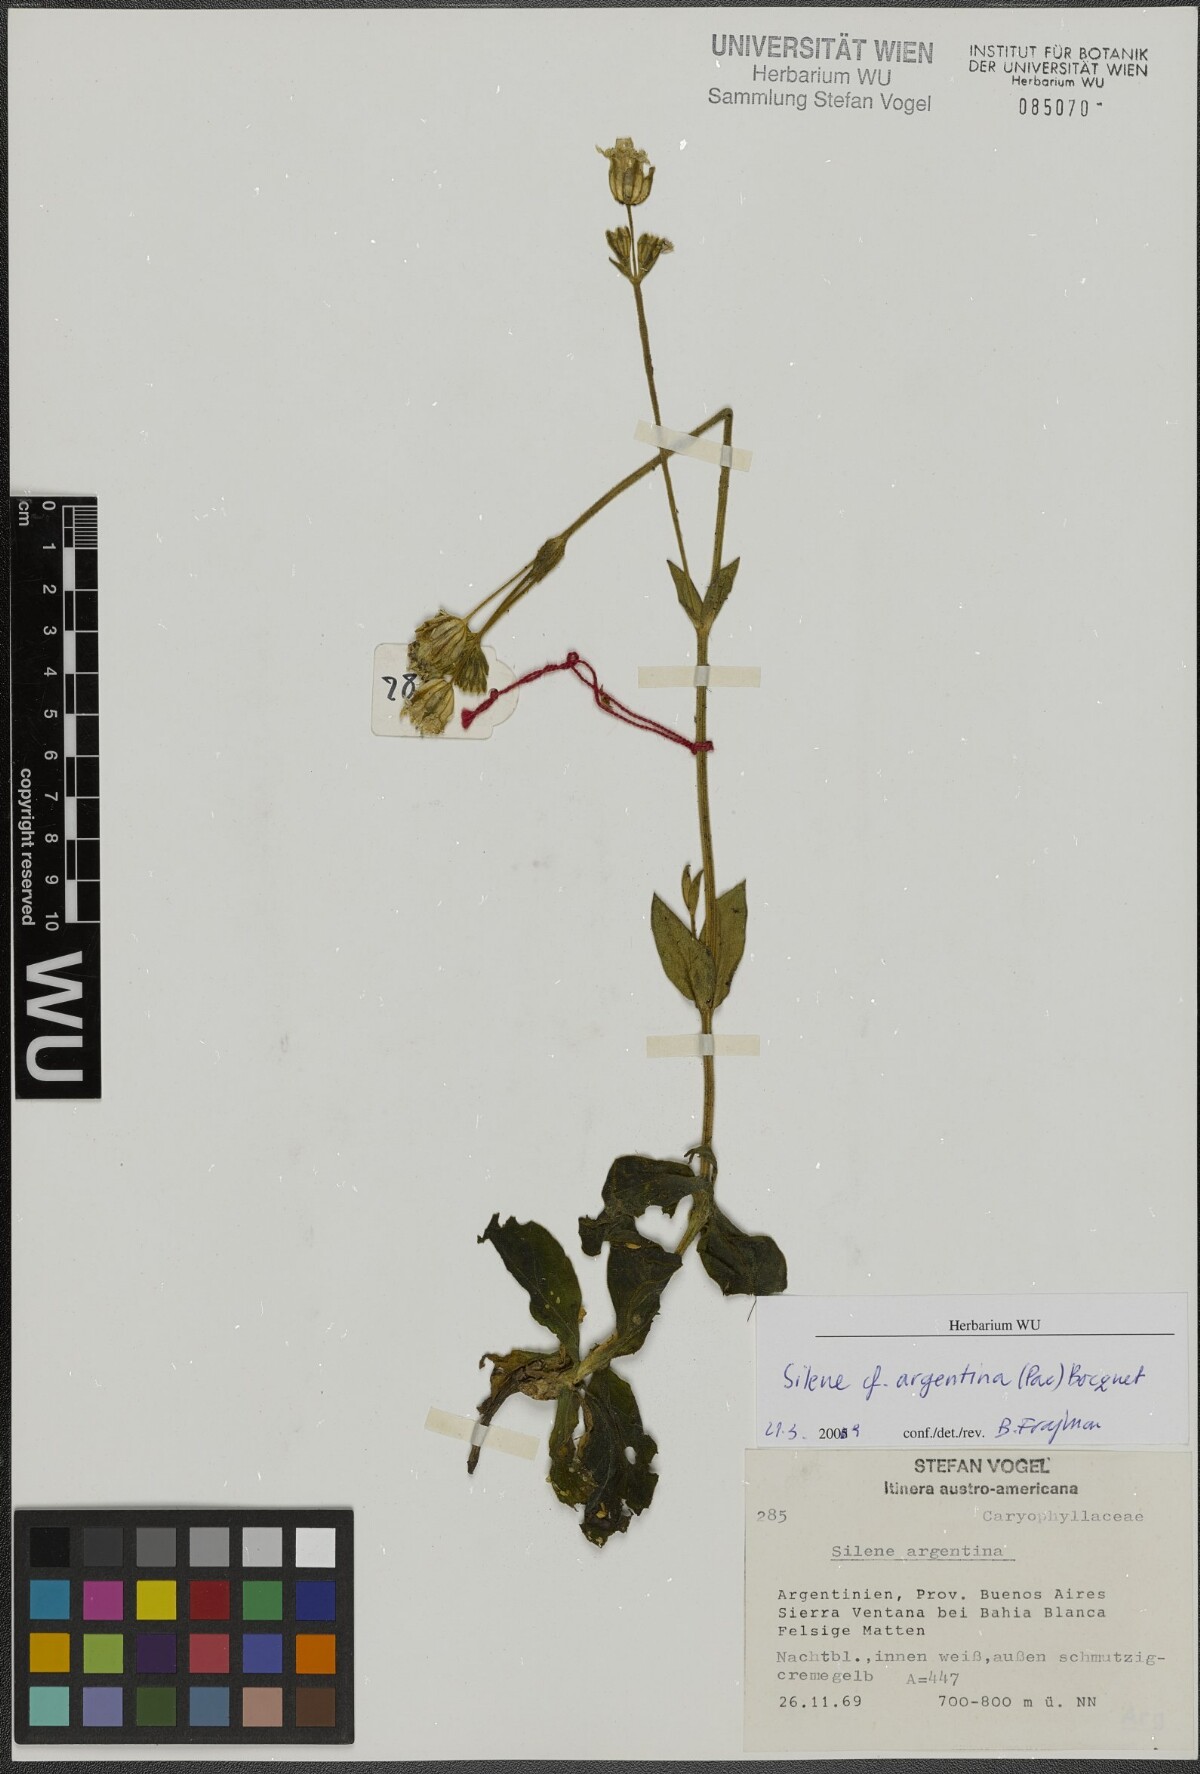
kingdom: Plantae
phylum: Tracheophyta
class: Magnoliopsida
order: Caryophyllales
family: Caryophyllaceae
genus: Silene
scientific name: Silene argentina
